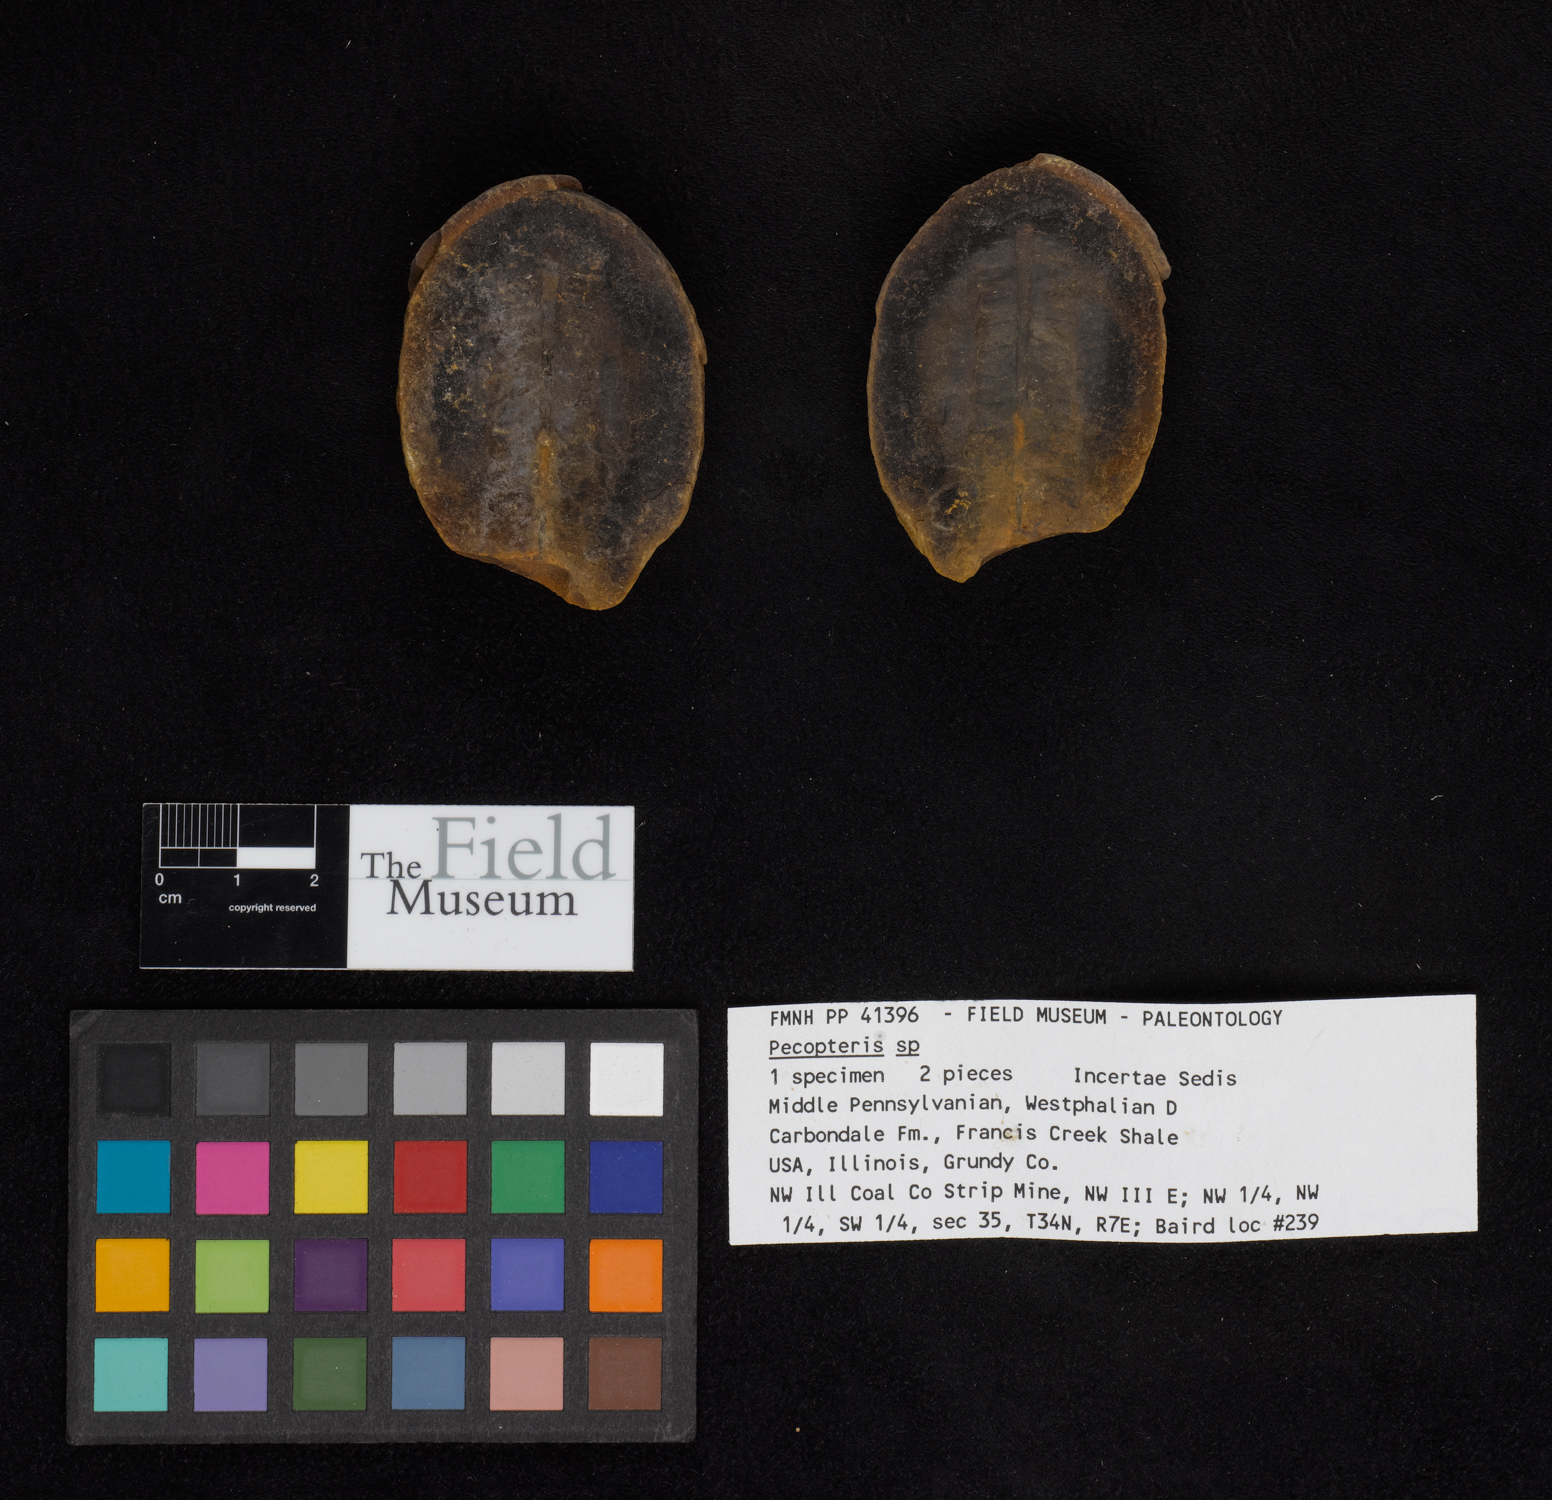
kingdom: Plantae
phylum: Tracheophyta
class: Polypodiopsida
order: Marattiales
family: Asterothecaceae
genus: Pecopteris
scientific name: Pecopteris
